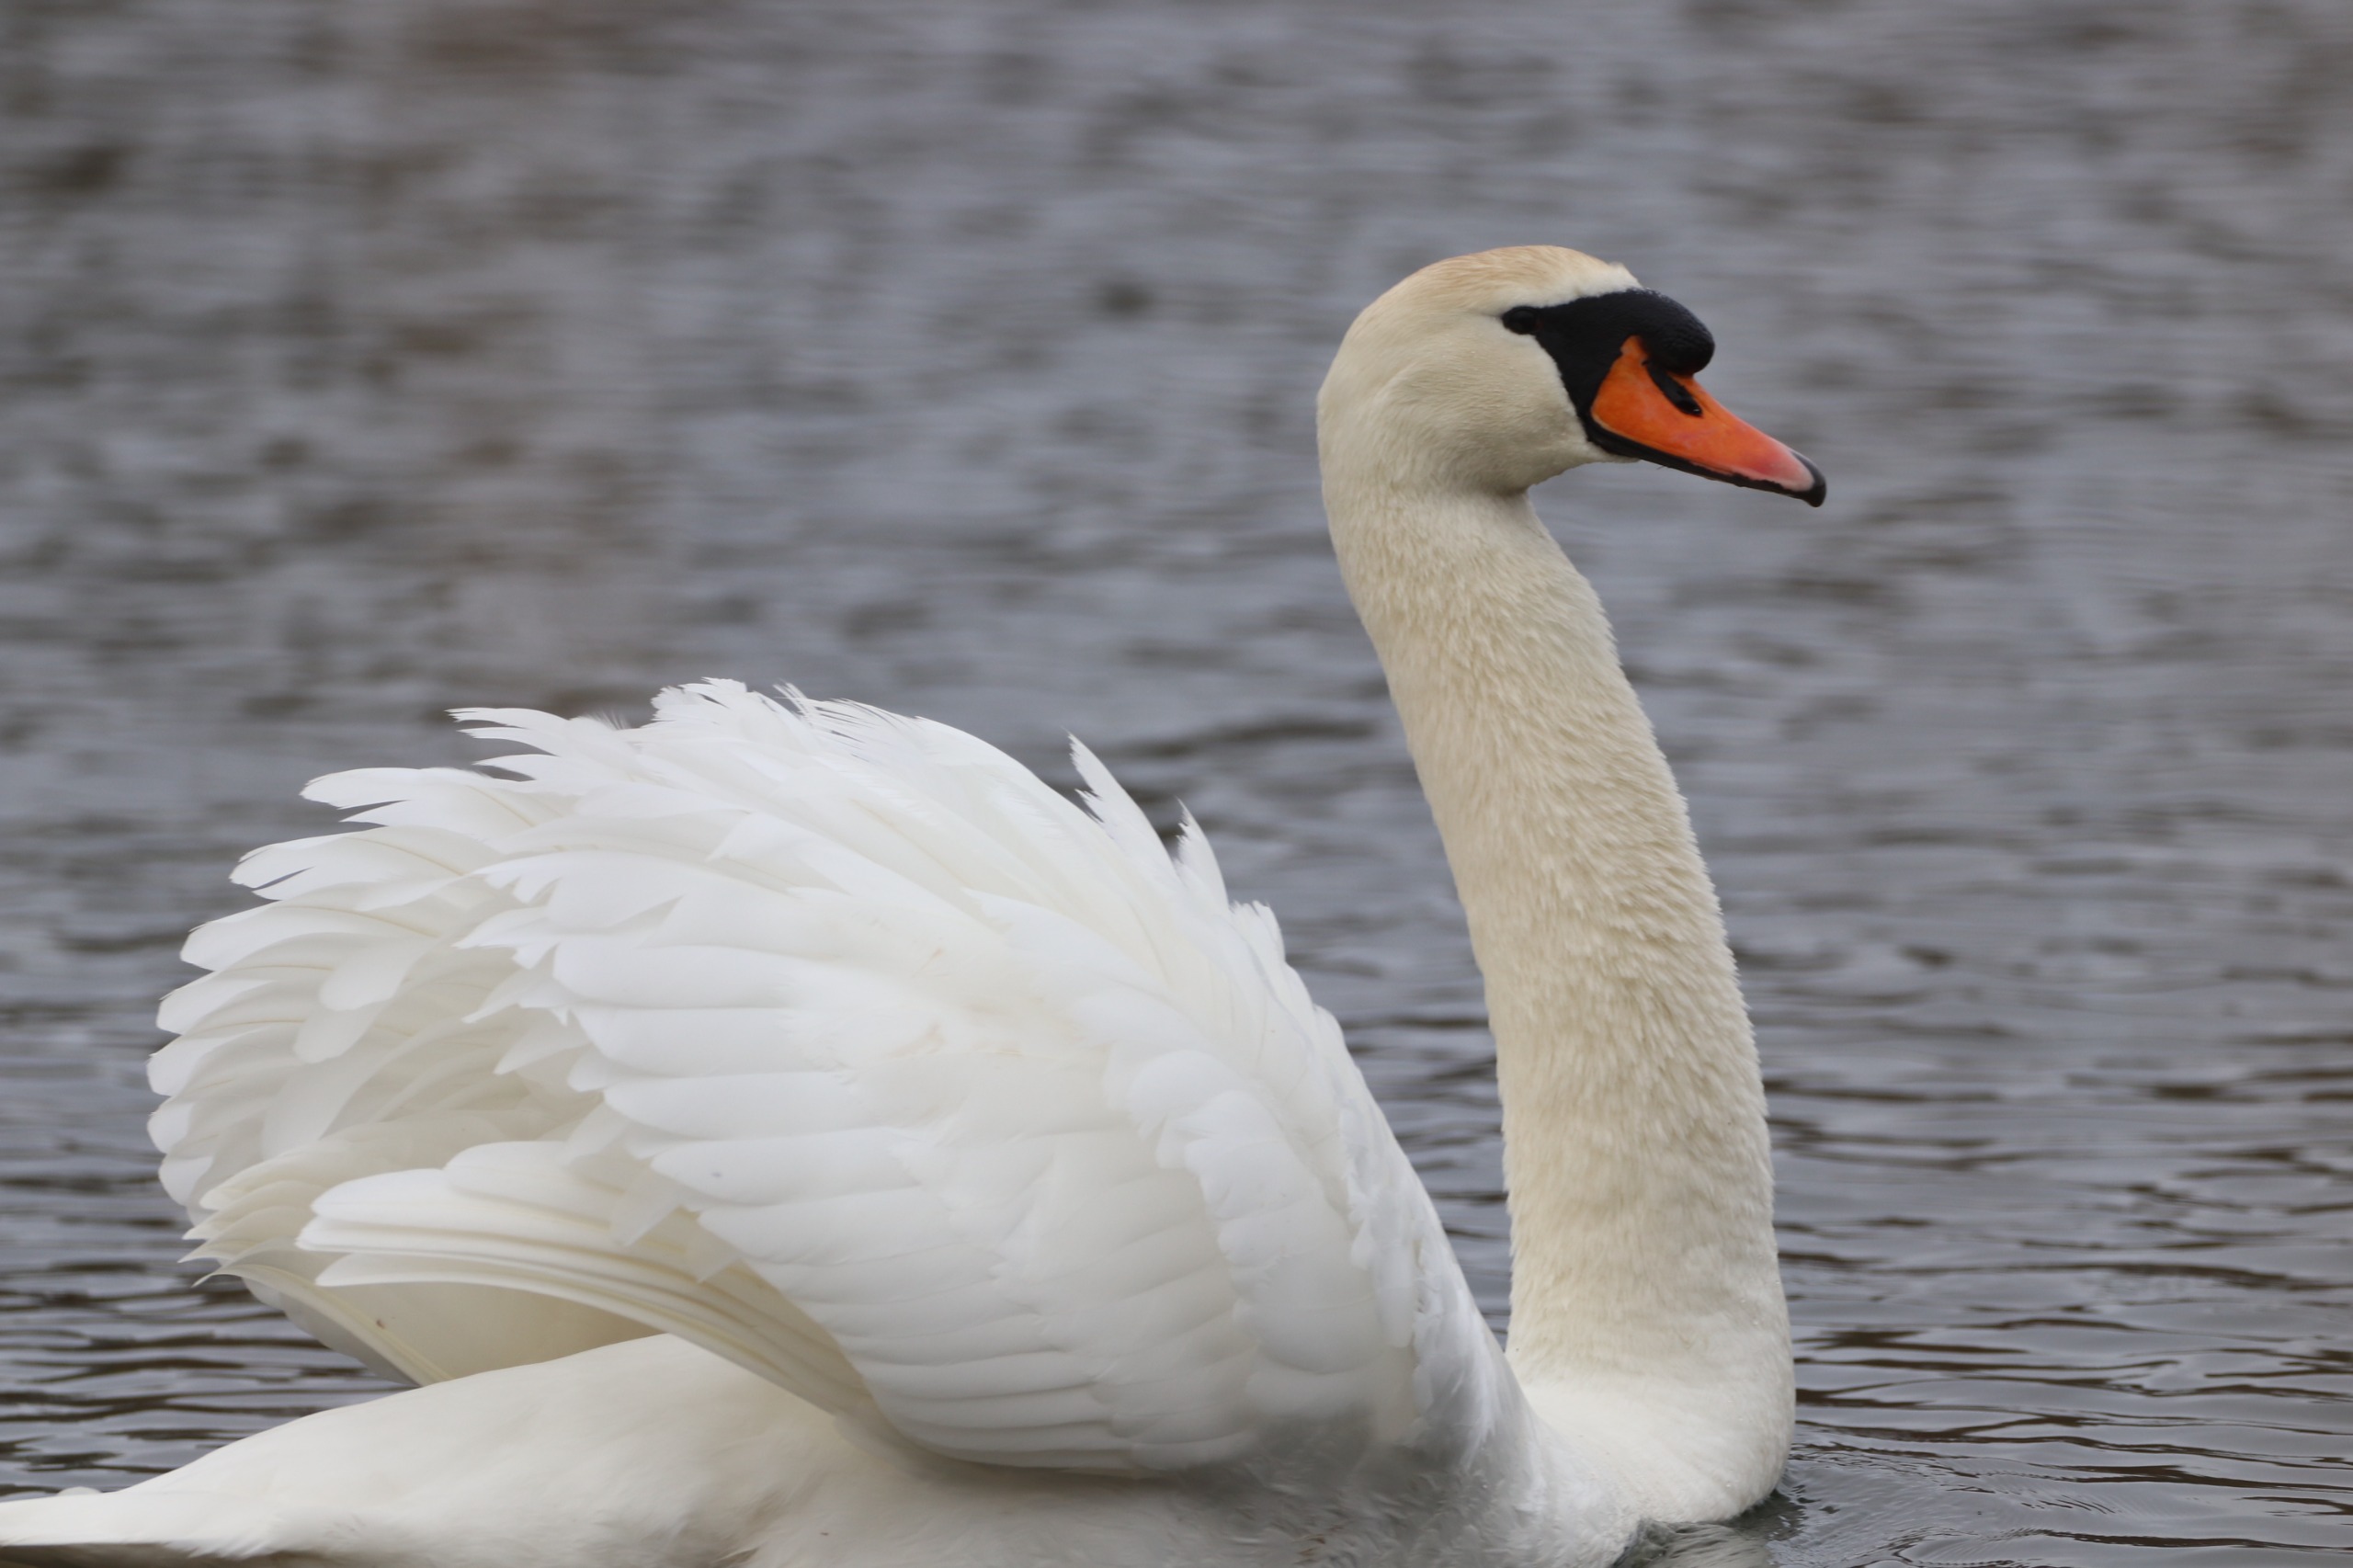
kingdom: Animalia
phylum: Chordata
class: Aves
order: Anseriformes
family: Anatidae
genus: Cygnus
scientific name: Cygnus olor
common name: Knopsvane
